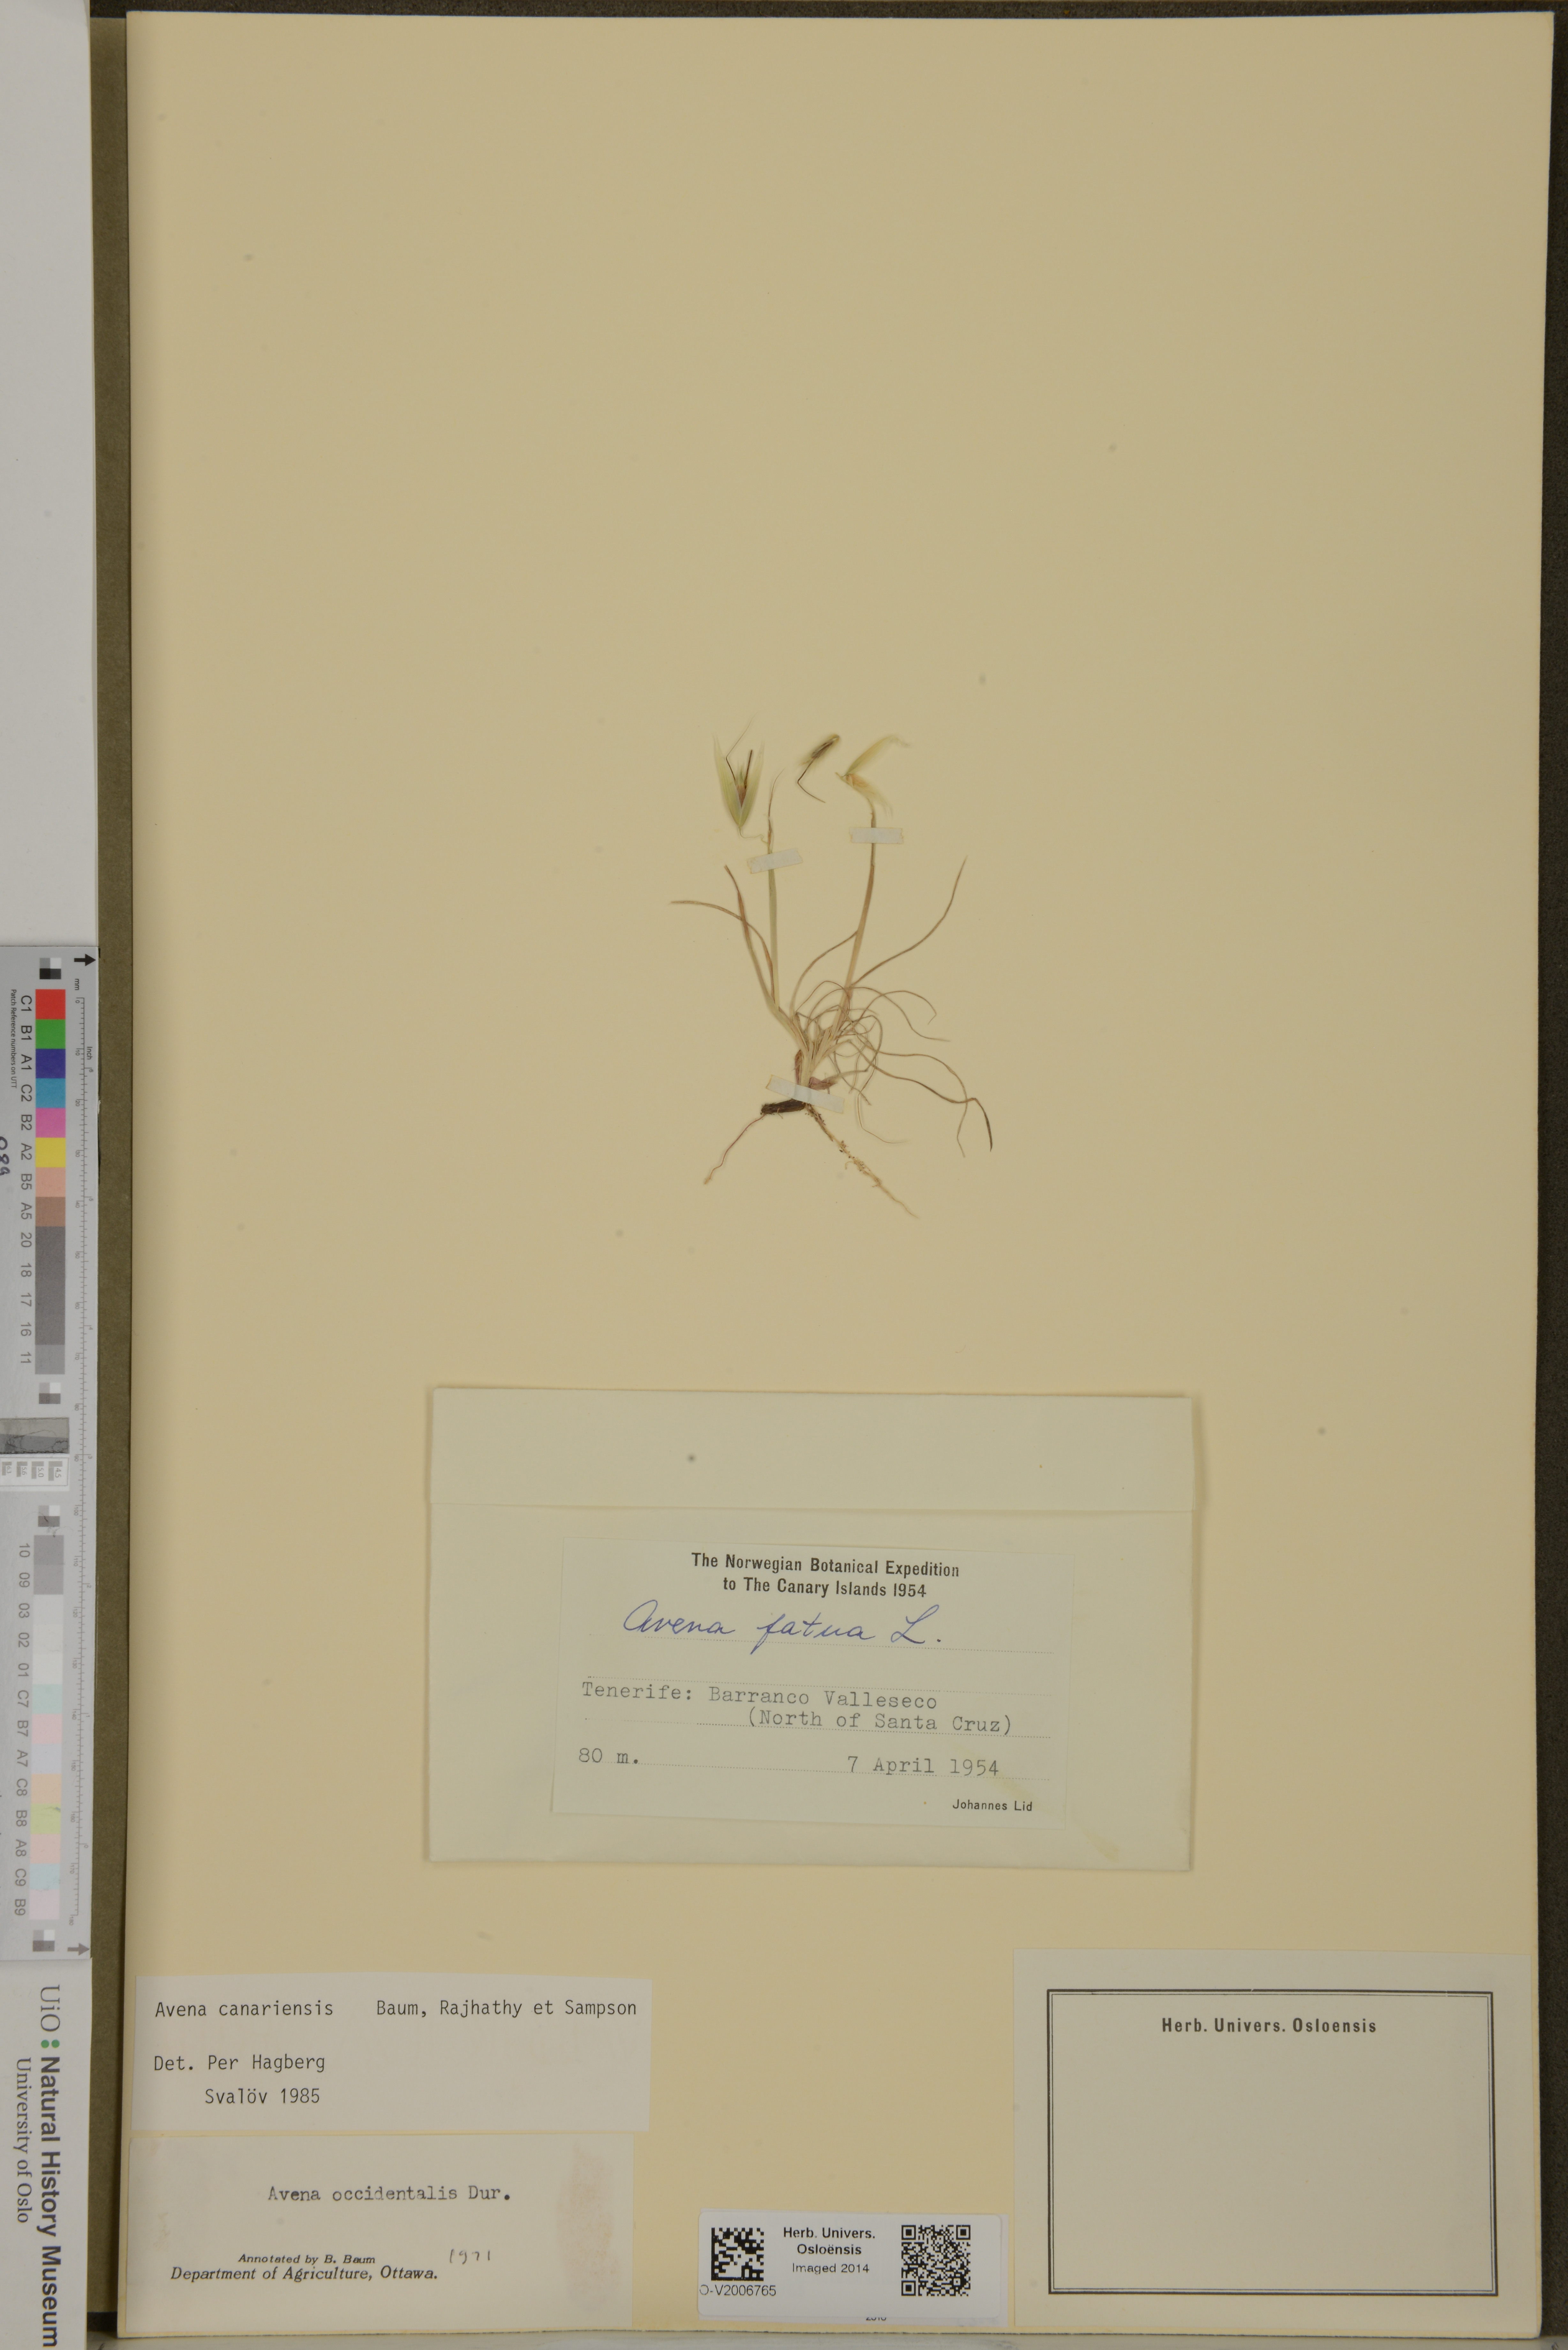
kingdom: Plantae
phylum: Tracheophyta
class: Liliopsida
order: Poales
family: Poaceae
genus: Avena
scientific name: Avena canariensis
